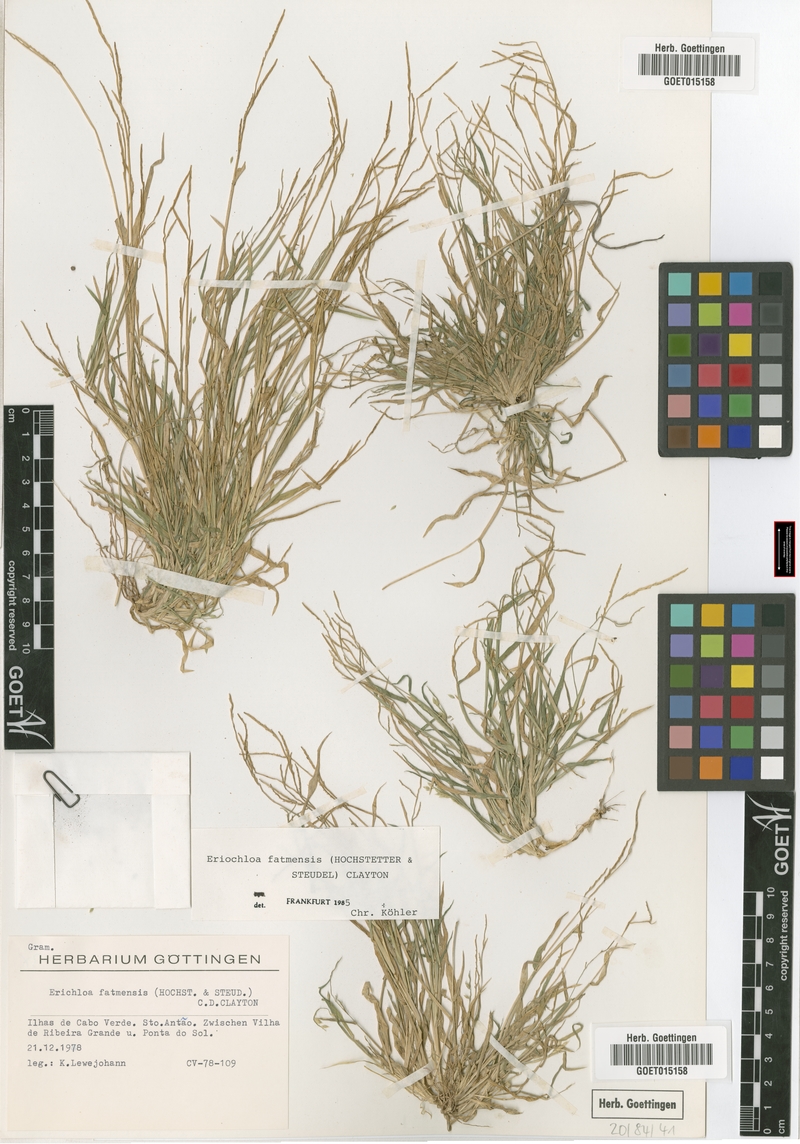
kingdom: Plantae
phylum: Tracheophyta
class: Liliopsida
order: Poales
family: Poaceae
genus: Eriochloa
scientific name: Eriochloa barbatus
